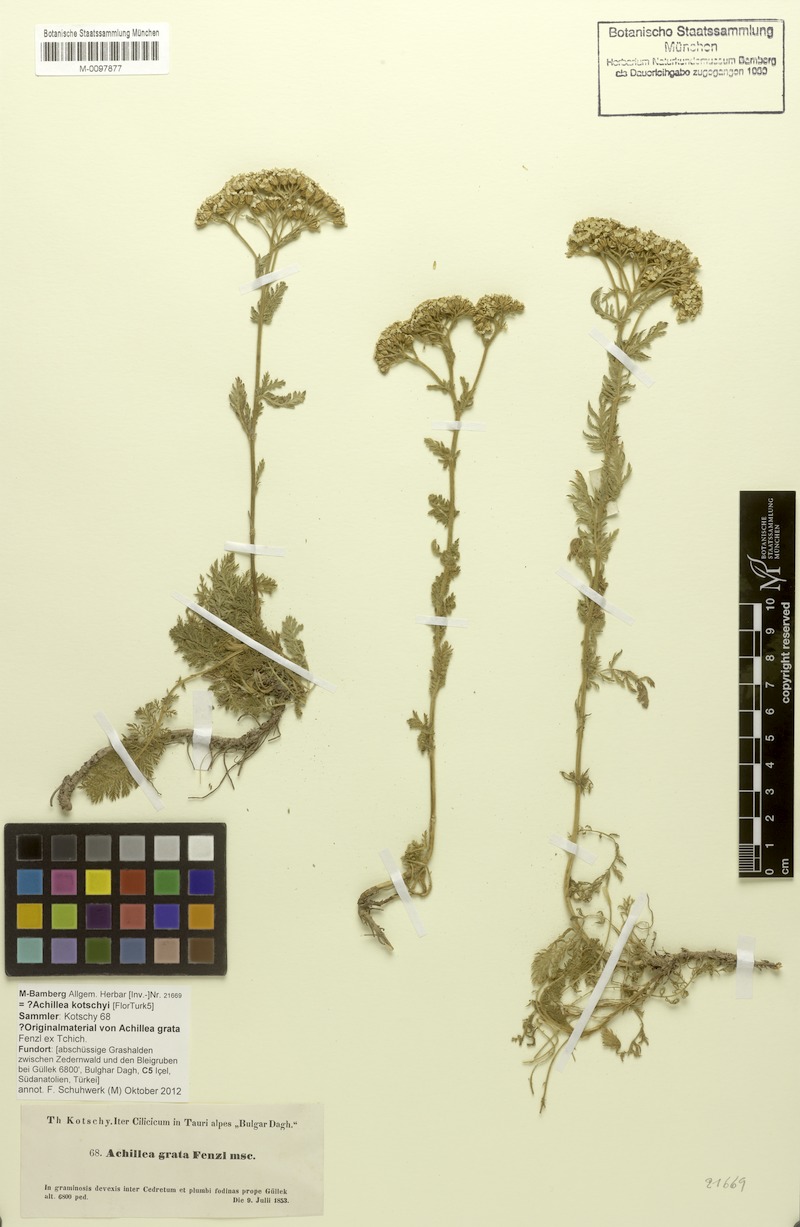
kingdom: Plantae
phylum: Tracheophyta
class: Magnoliopsida
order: Asterales
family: Asteraceae
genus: Achillea
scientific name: Achillea nobilis
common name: Noble yarrow
